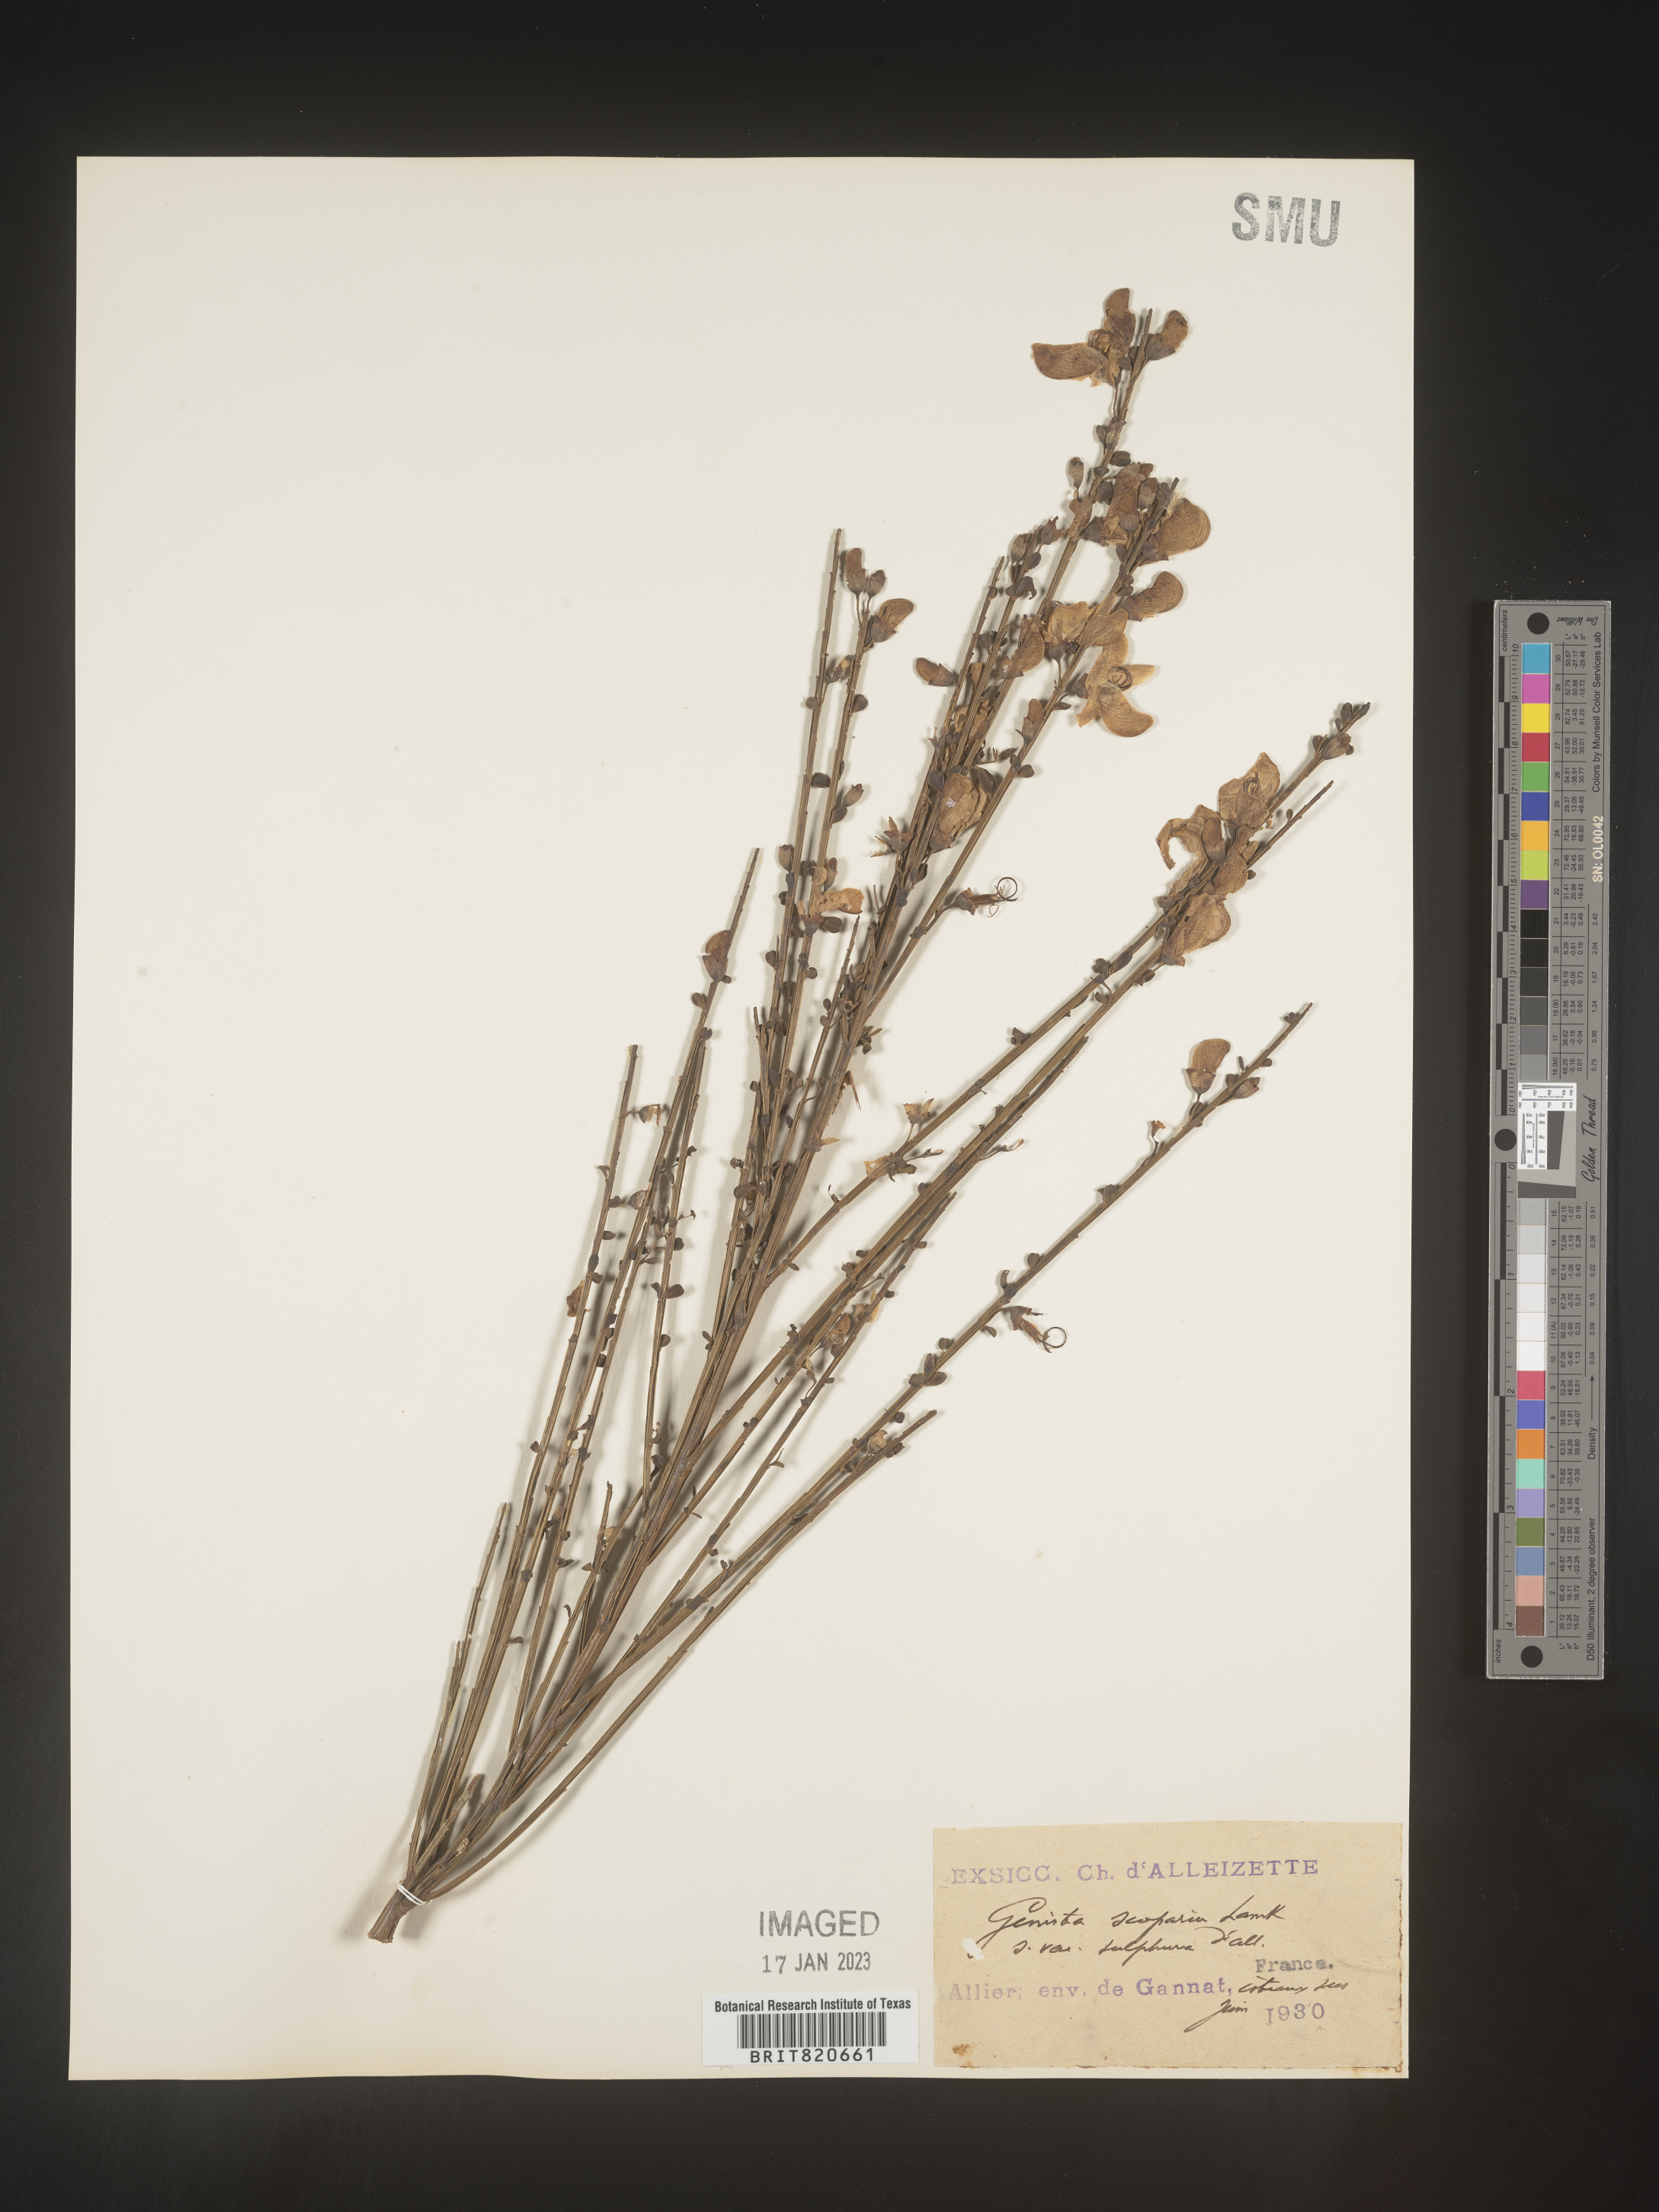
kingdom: Plantae
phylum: Tracheophyta
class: Magnoliopsida
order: Fabales
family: Fabaceae
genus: Genista
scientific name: Genista
